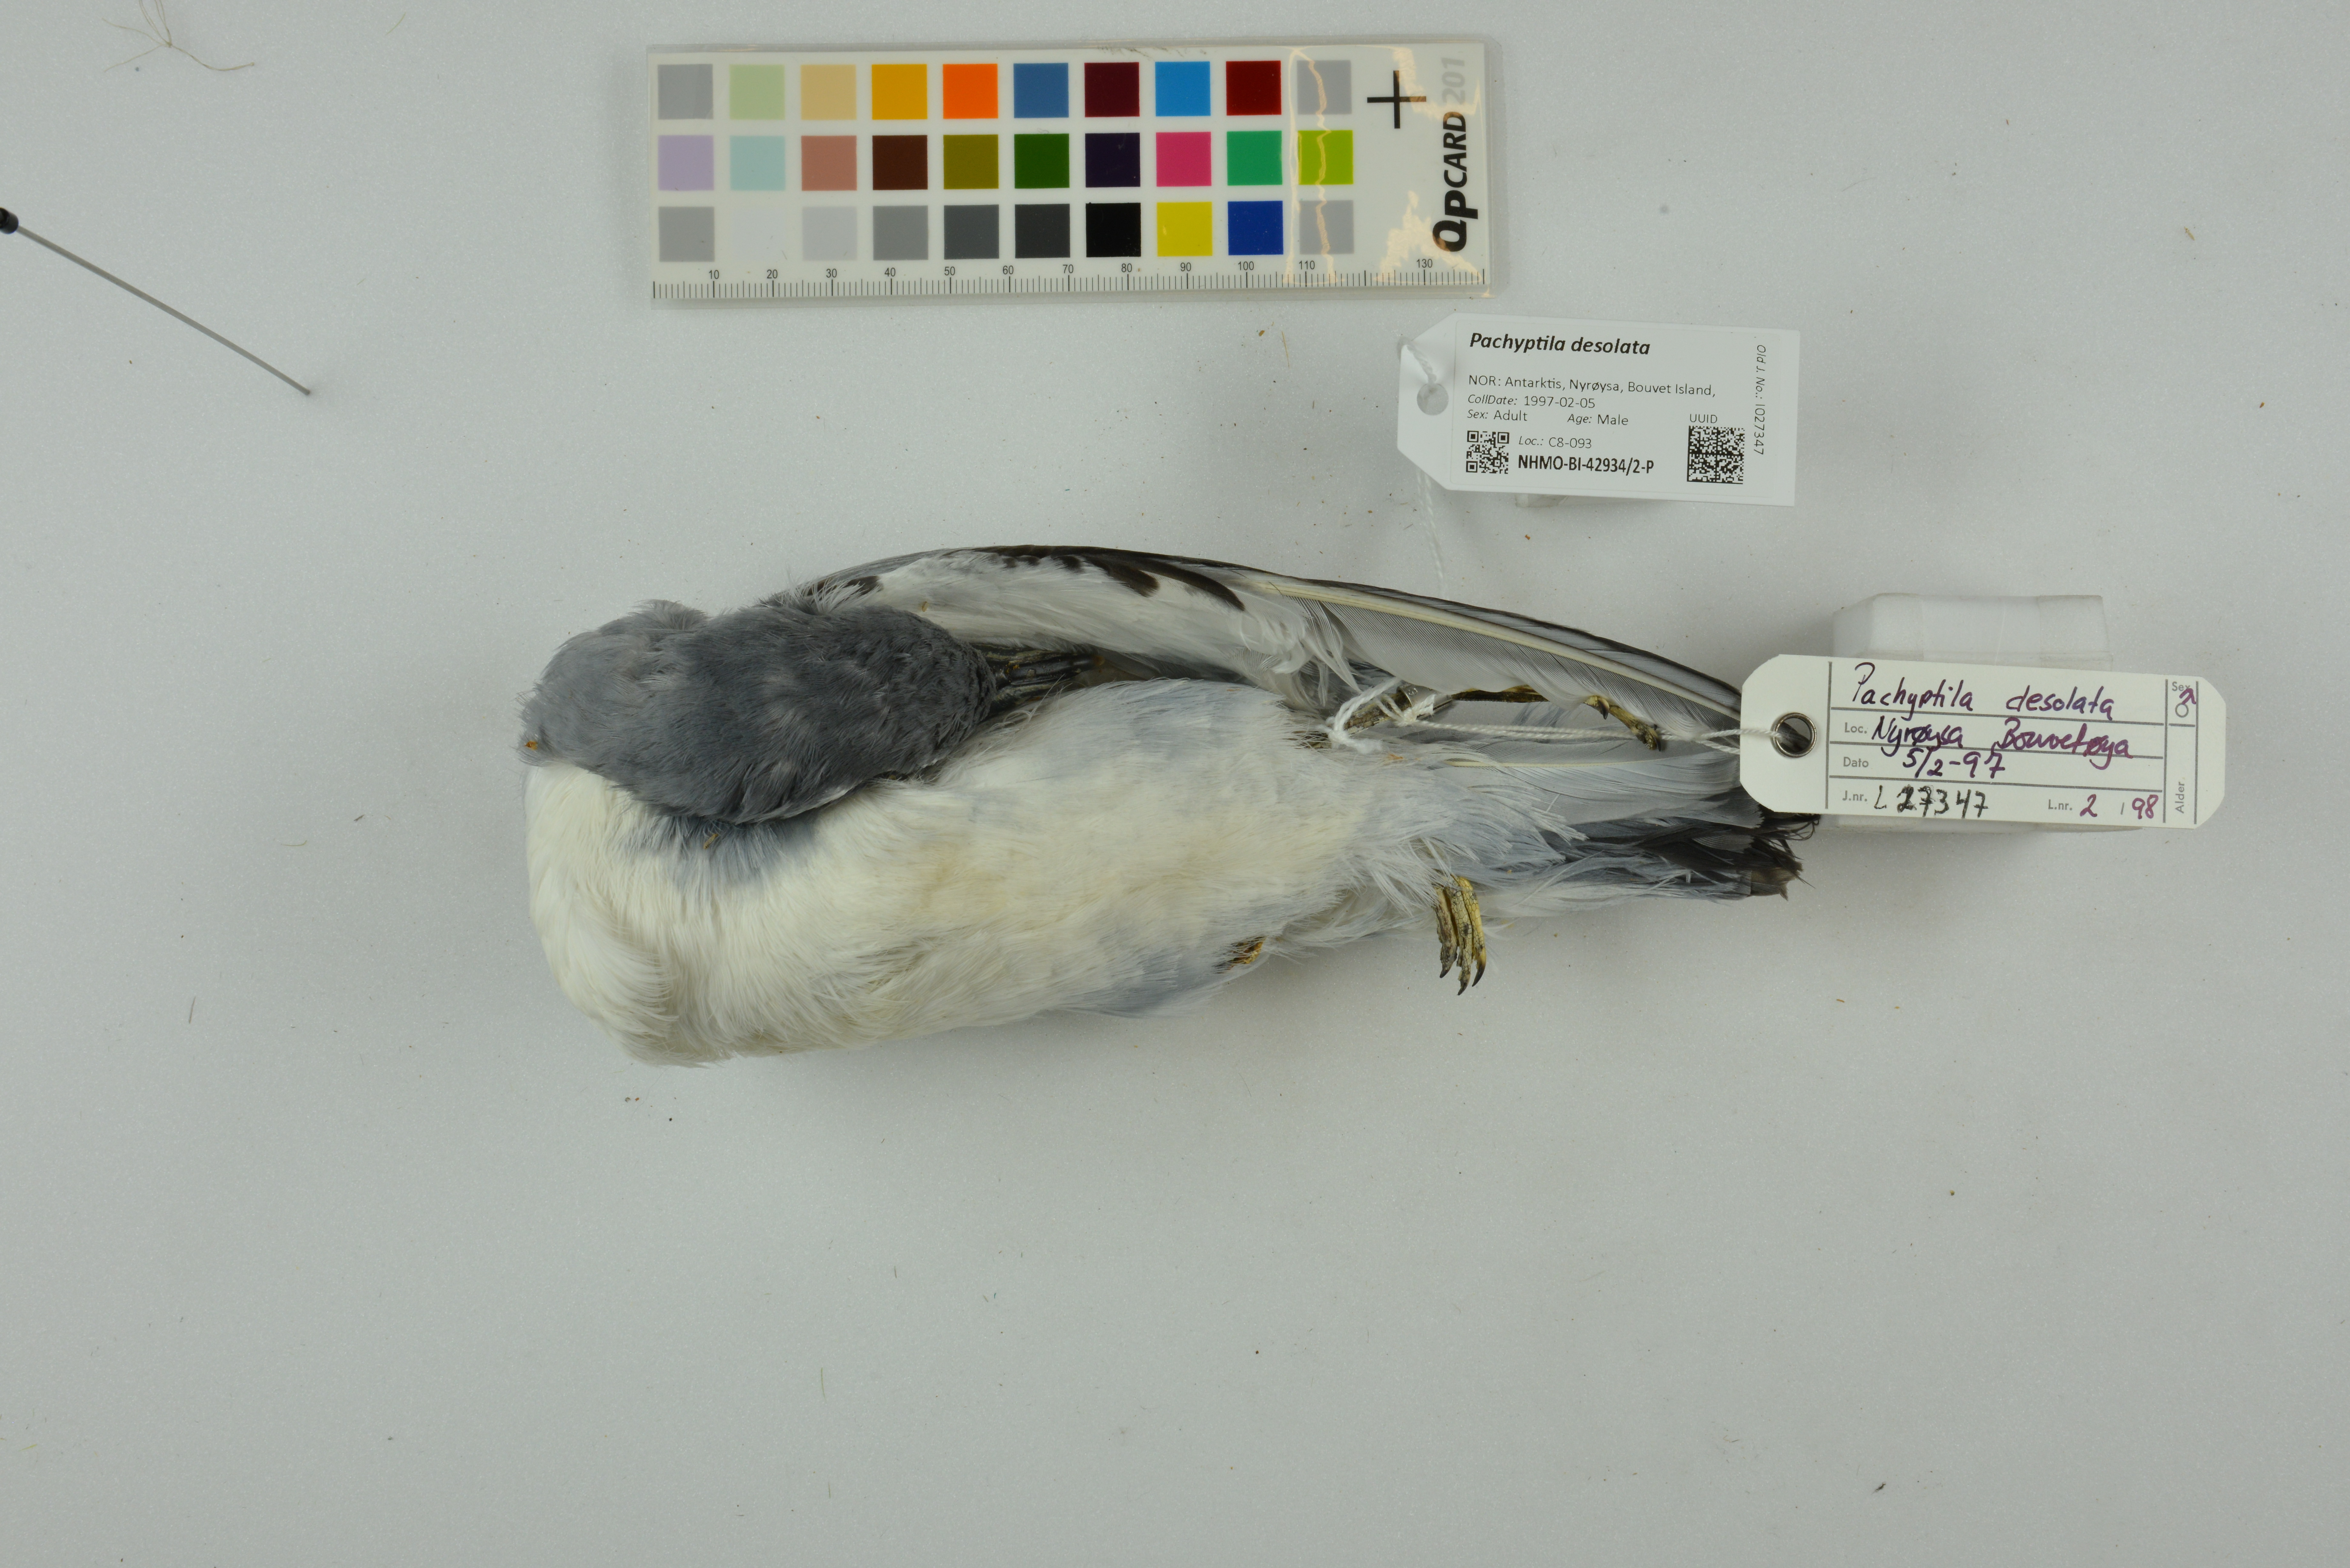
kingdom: Animalia
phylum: Chordata
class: Aves
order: Procellariiformes
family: Procellariidae
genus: Pachyptila
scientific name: Pachyptila desolata
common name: Antarctic prion
